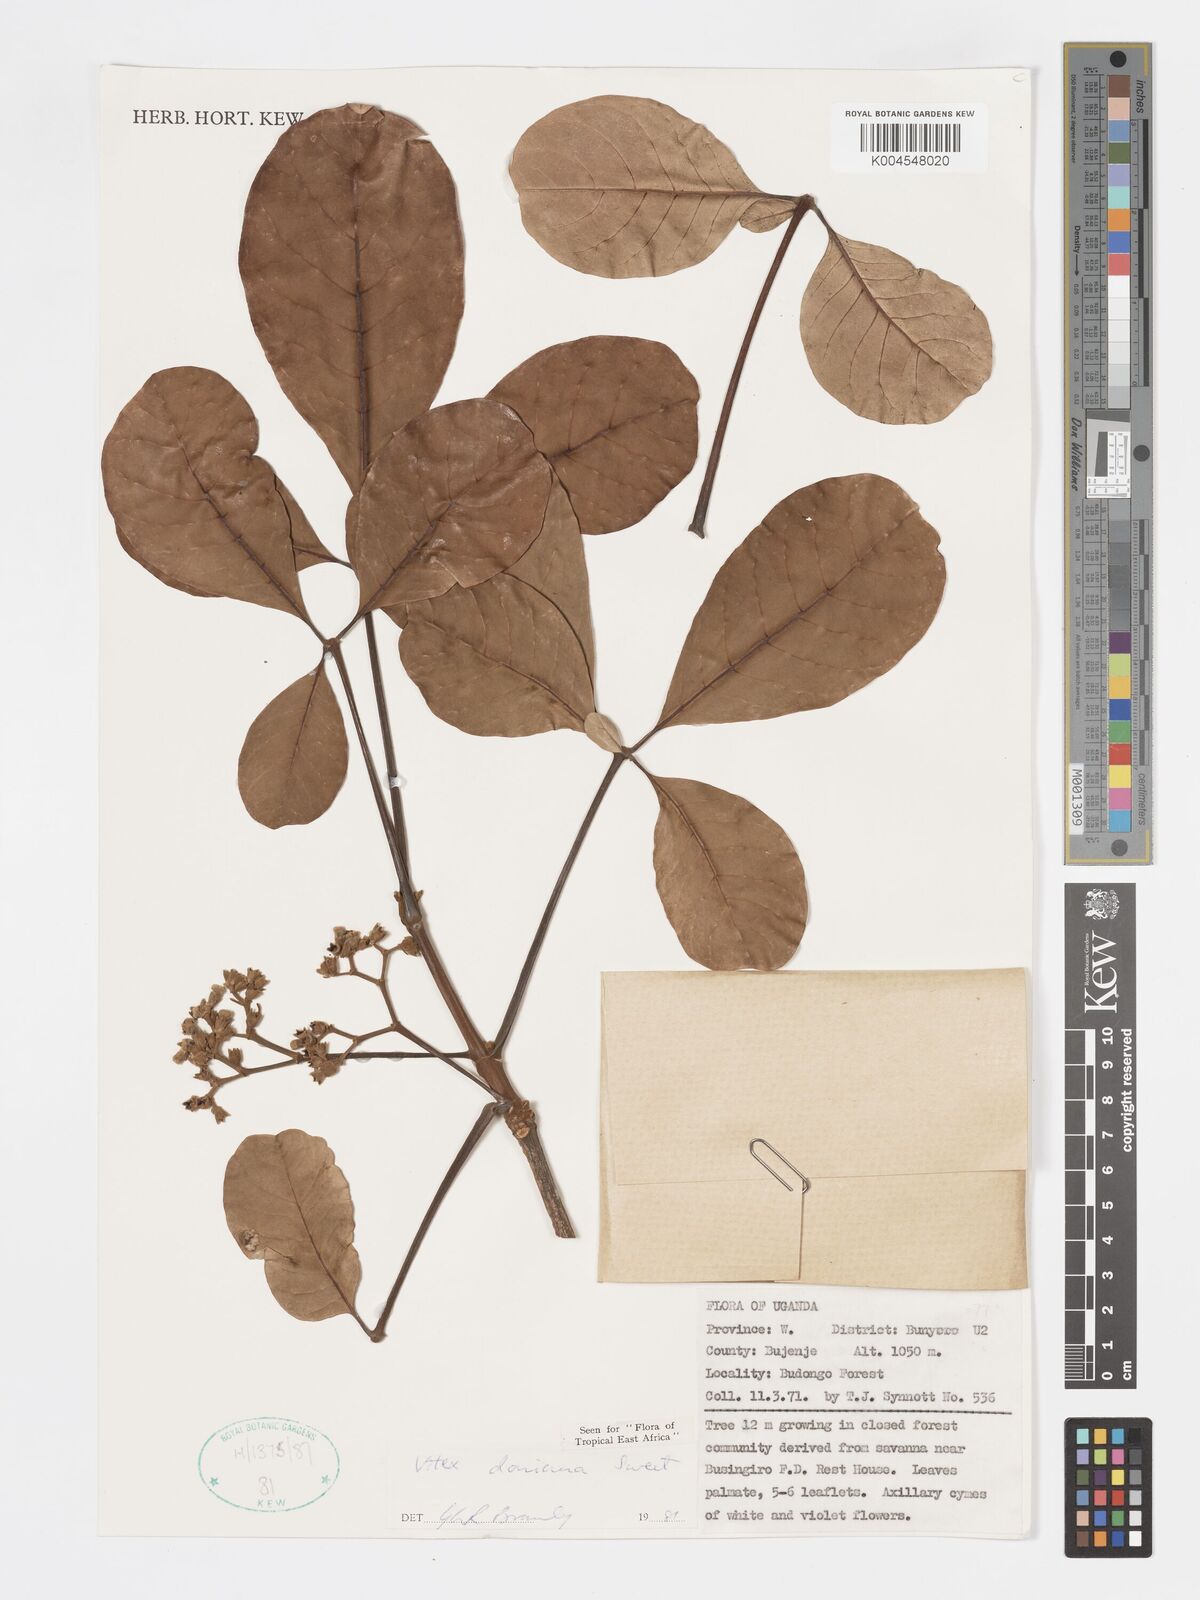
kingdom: Plantae
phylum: Tracheophyta
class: Magnoliopsida
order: Lamiales
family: Lamiaceae
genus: Vitex
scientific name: Vitex doniana
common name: Black plum
